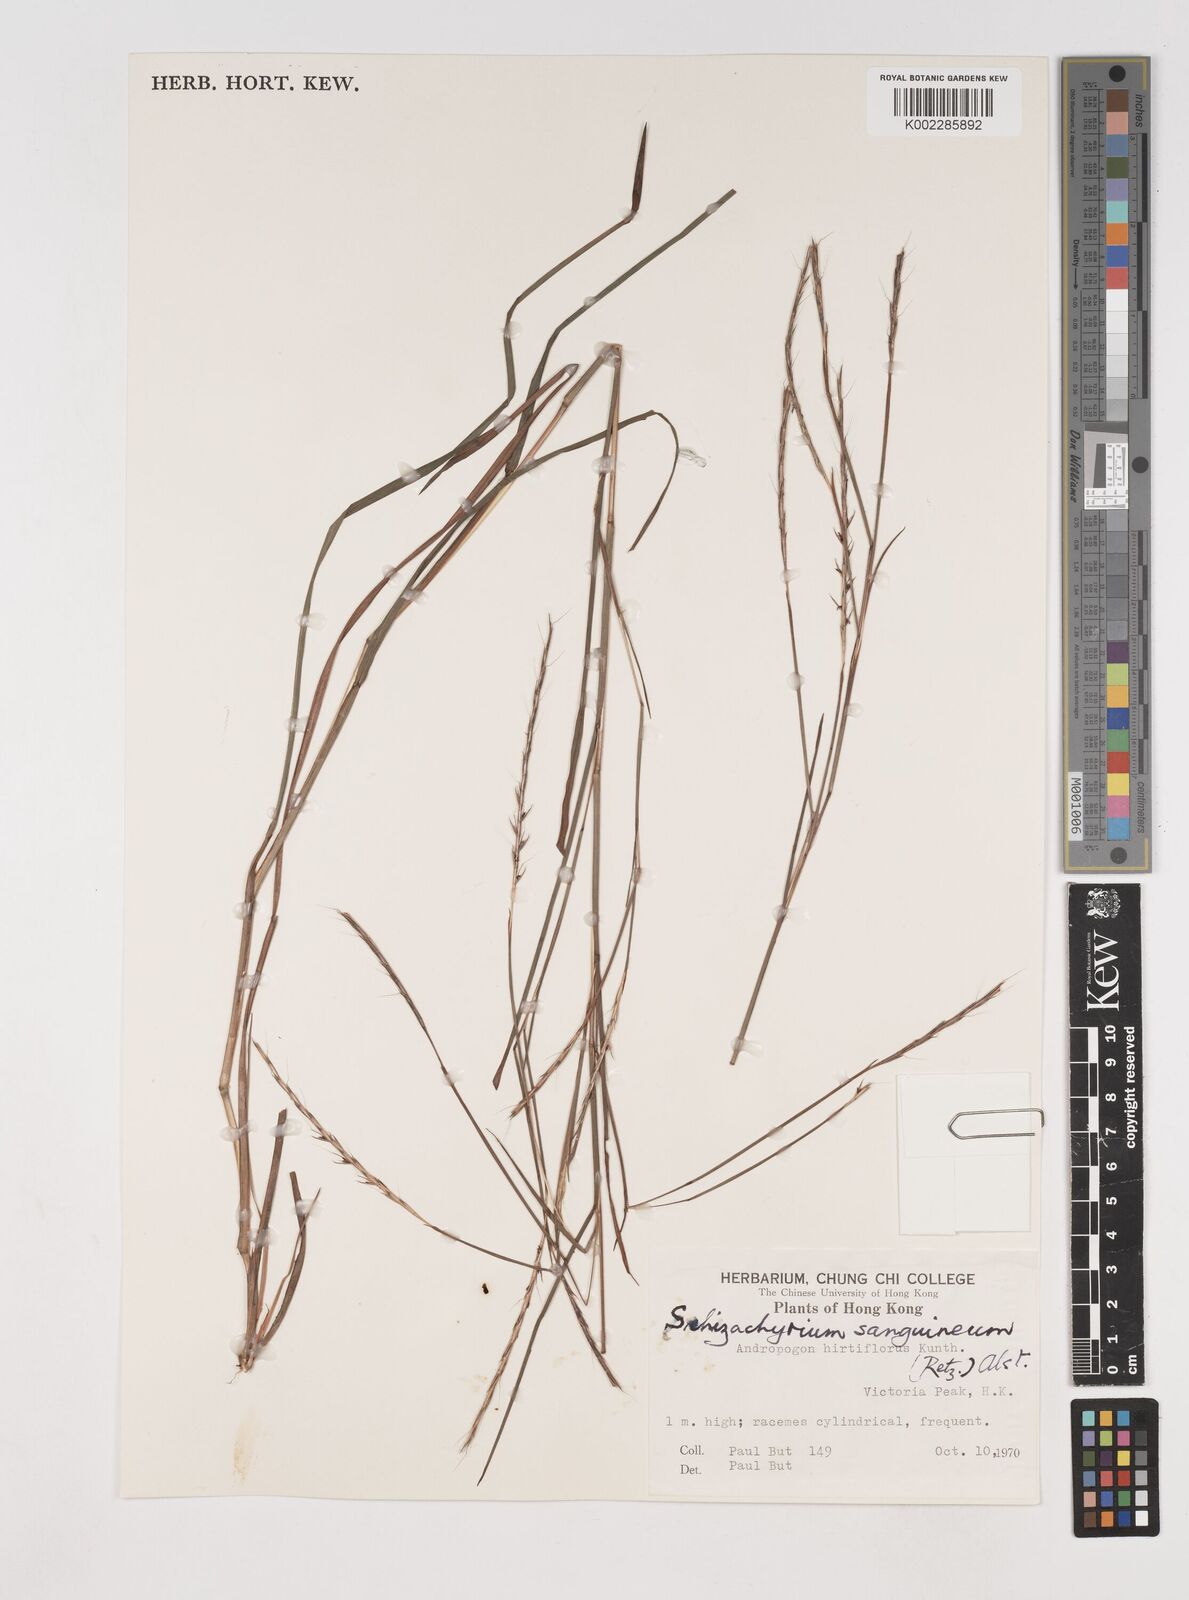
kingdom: Plantae
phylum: Tracheophyta
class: Liliopsida
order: Poales
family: Poaceae
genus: Schizachyrium
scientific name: Schizachyrium sanguineum
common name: Crimson bluestem
